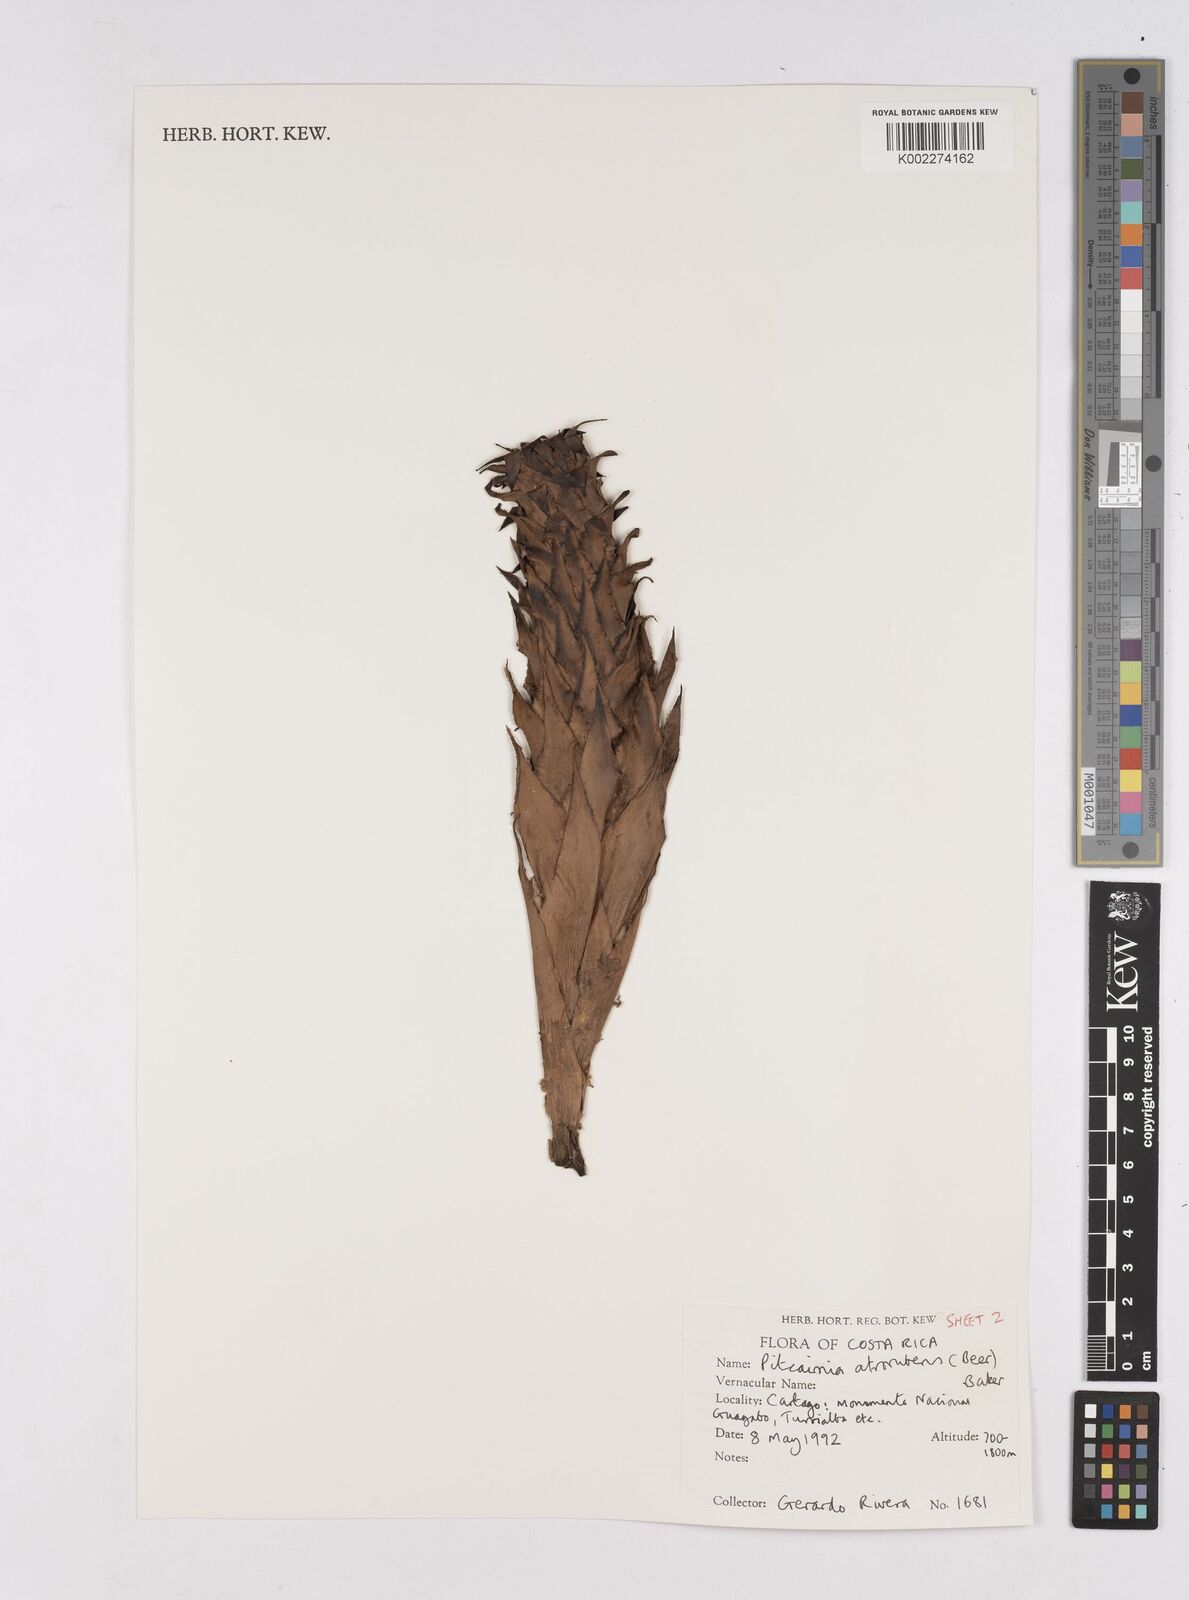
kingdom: Plantae
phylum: Tracheophyta
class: Liliopsida
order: Poales
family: Bromeliaceae
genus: Pitcairnia
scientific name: Pitcairnia atrorubens
